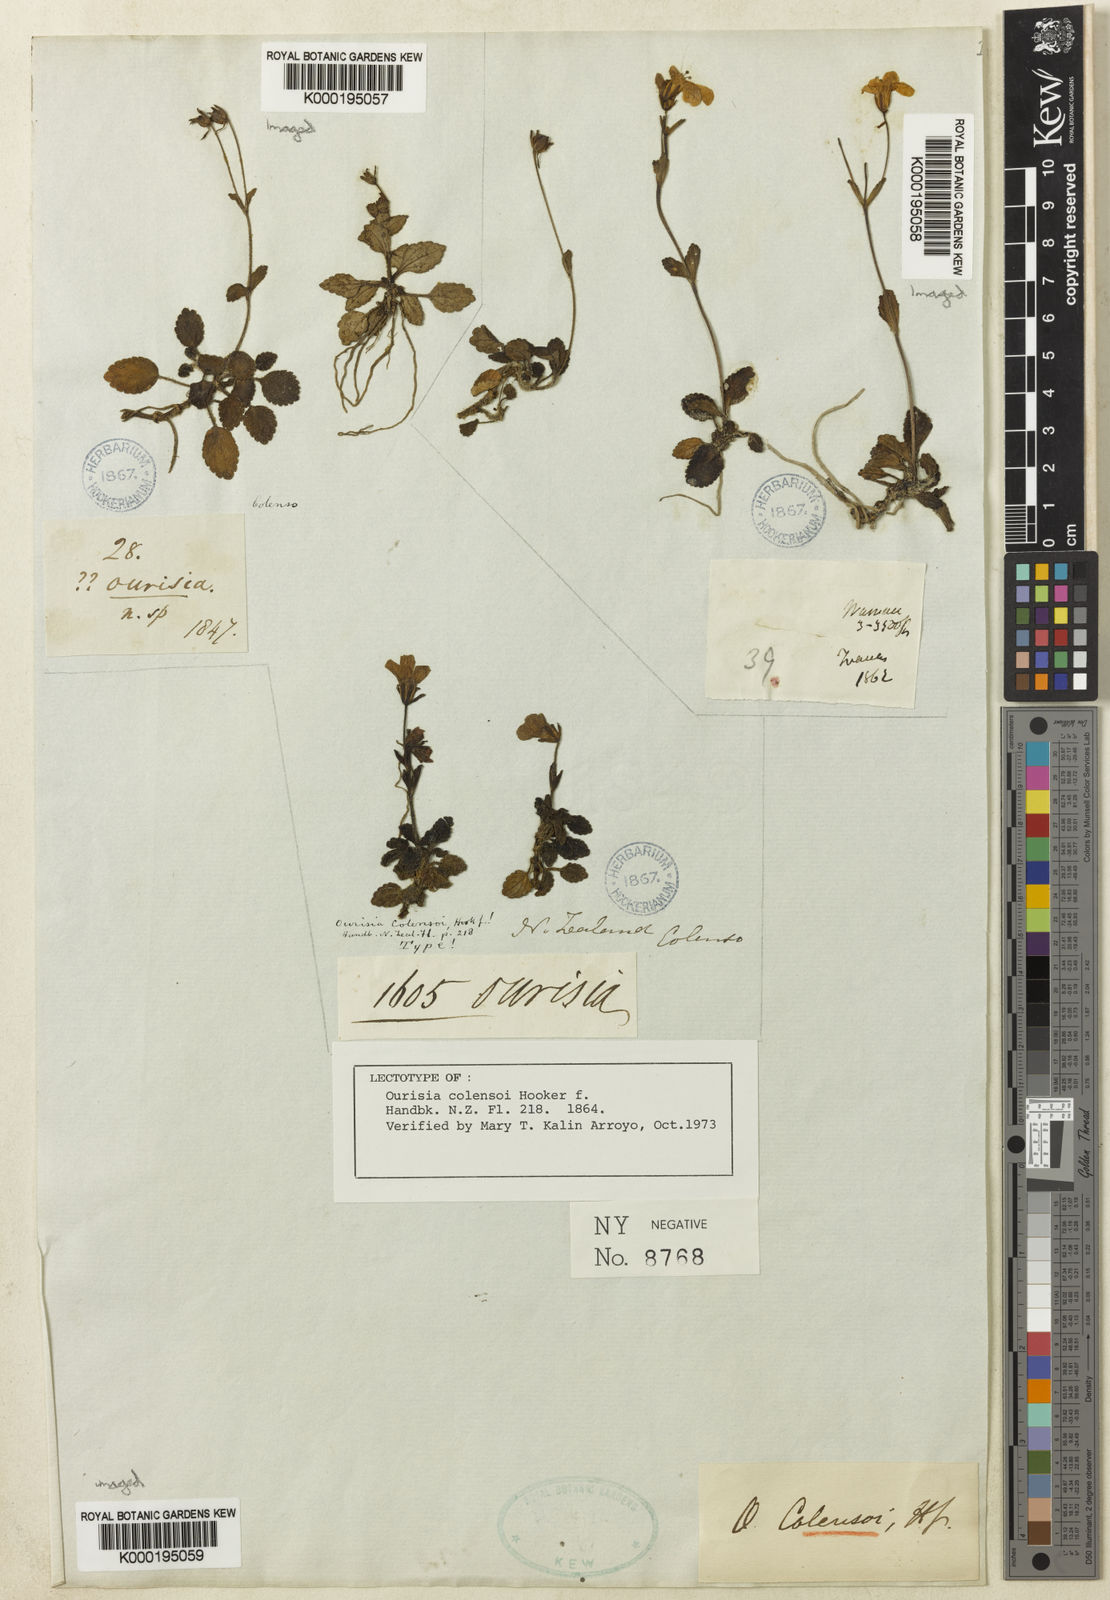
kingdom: Plantae
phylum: Tracheophyta
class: Magnoliopsida
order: Lamiales
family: Plantaginaceae
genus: Ourisia
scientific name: Ourisia macrophylla
